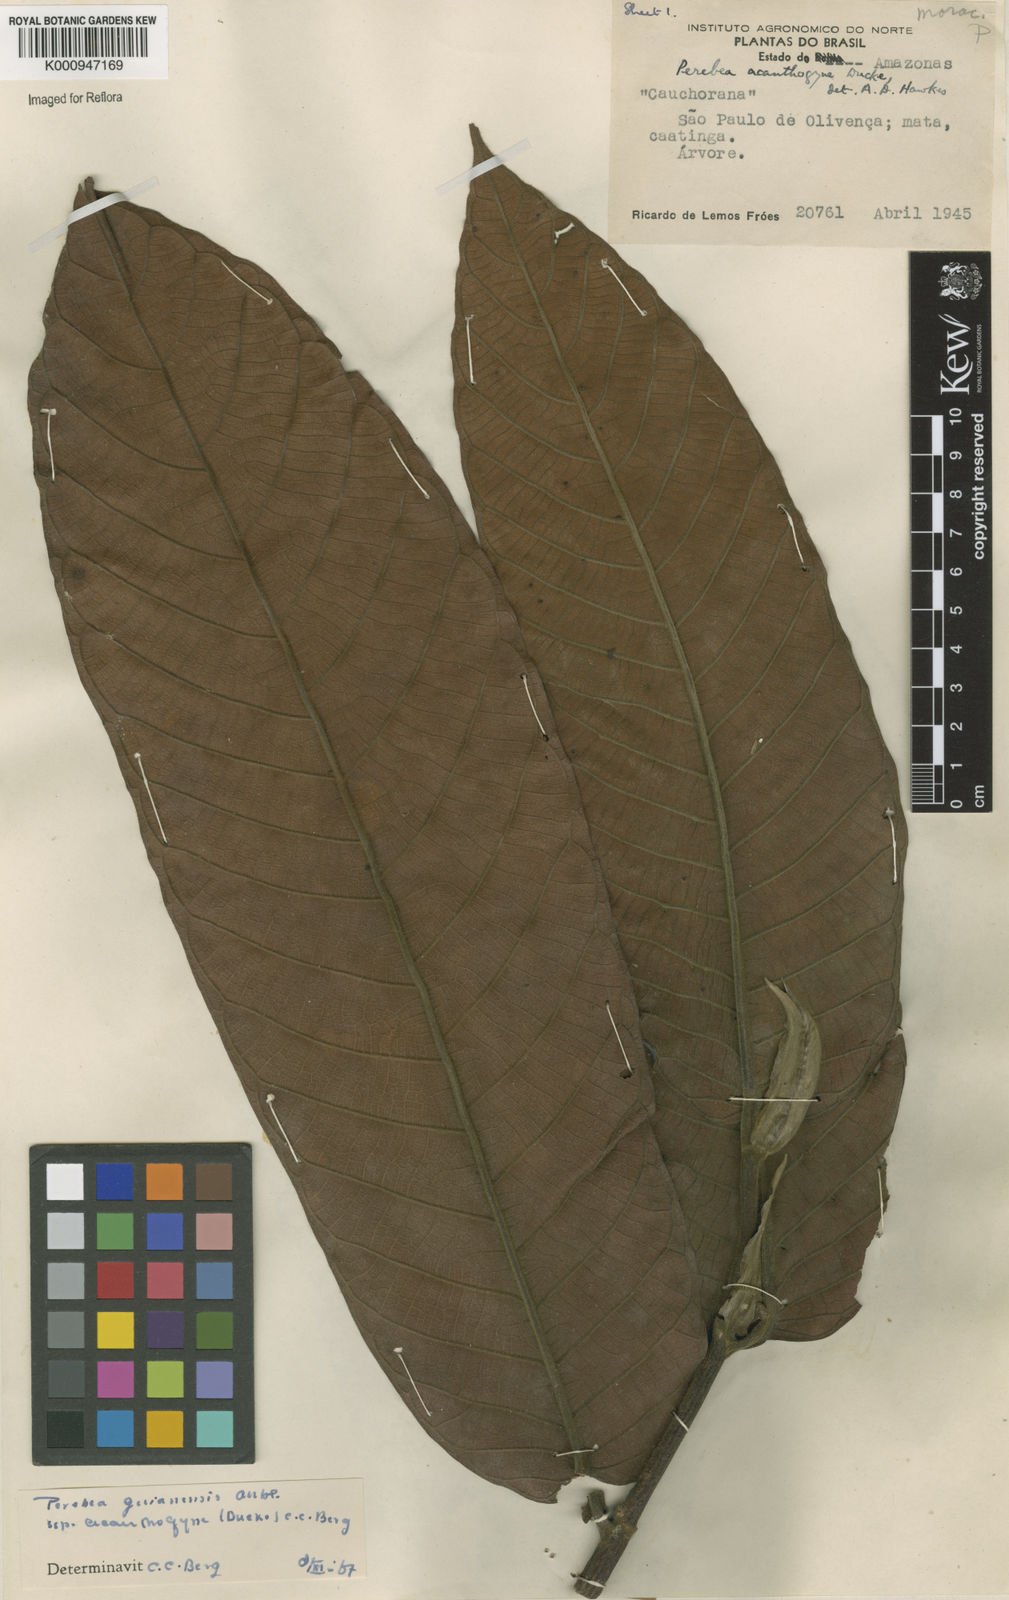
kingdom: Plantae
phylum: Tracheophyta
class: Magnoliopsida
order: Rosales
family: Moraceae
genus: Perebea
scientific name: Perebea guianensis
